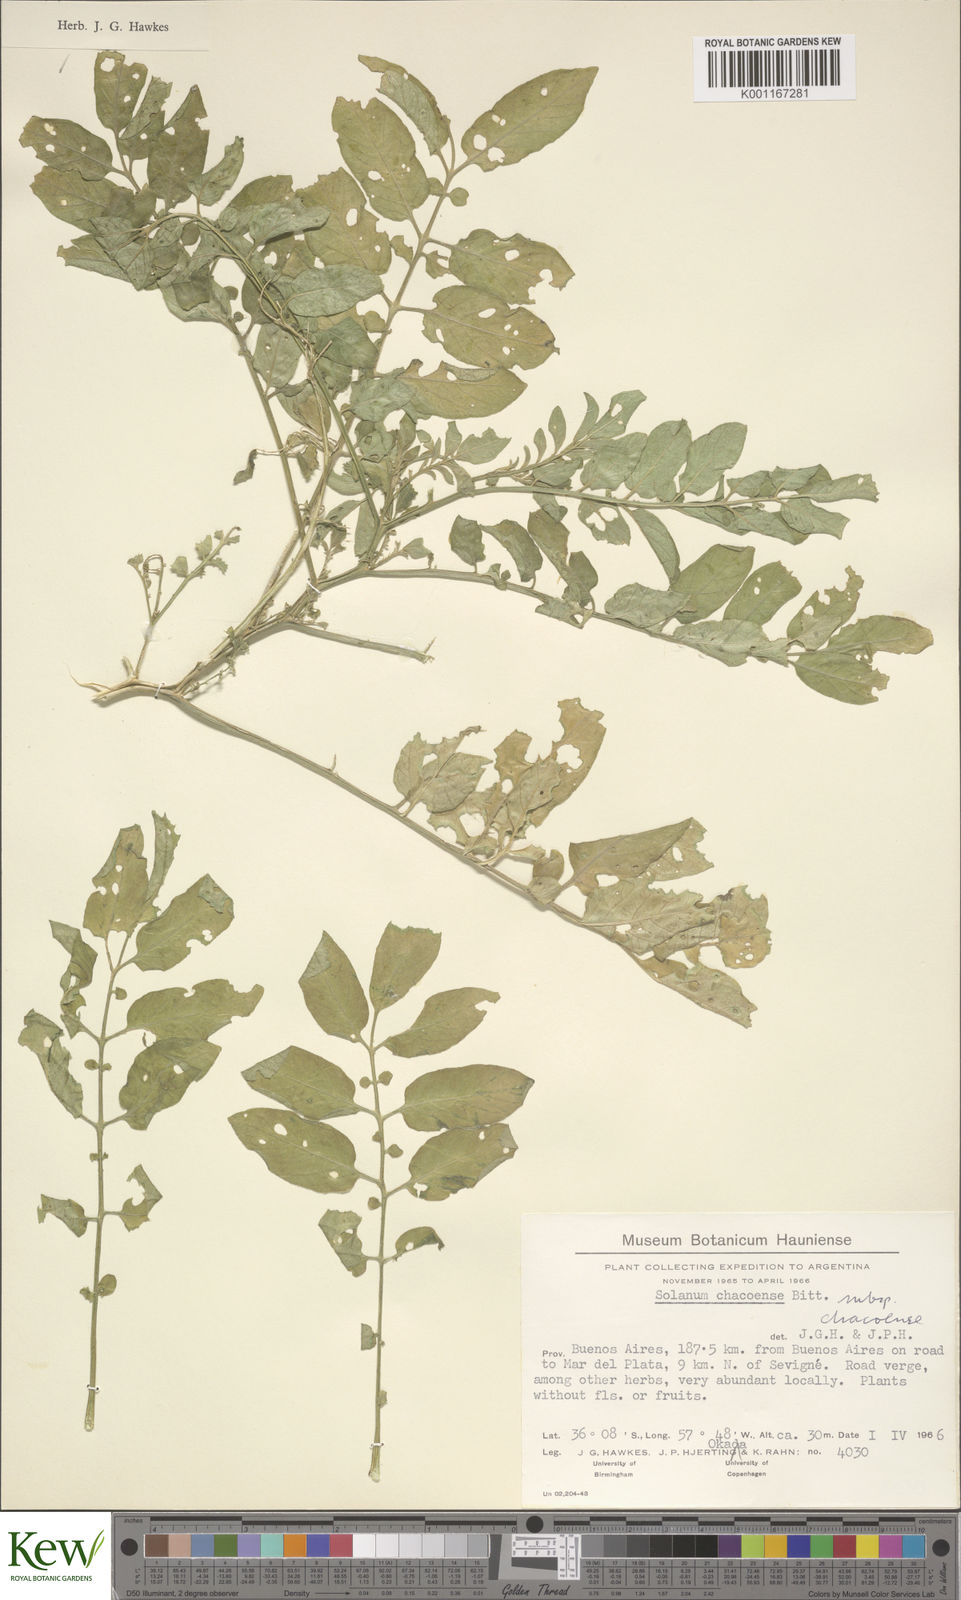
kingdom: Plantae
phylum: Tracheophyta
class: Magnoliopsida
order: Solanales
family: Solanaceae
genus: Solanum
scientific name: Solanum chacoense
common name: Chaco potato
